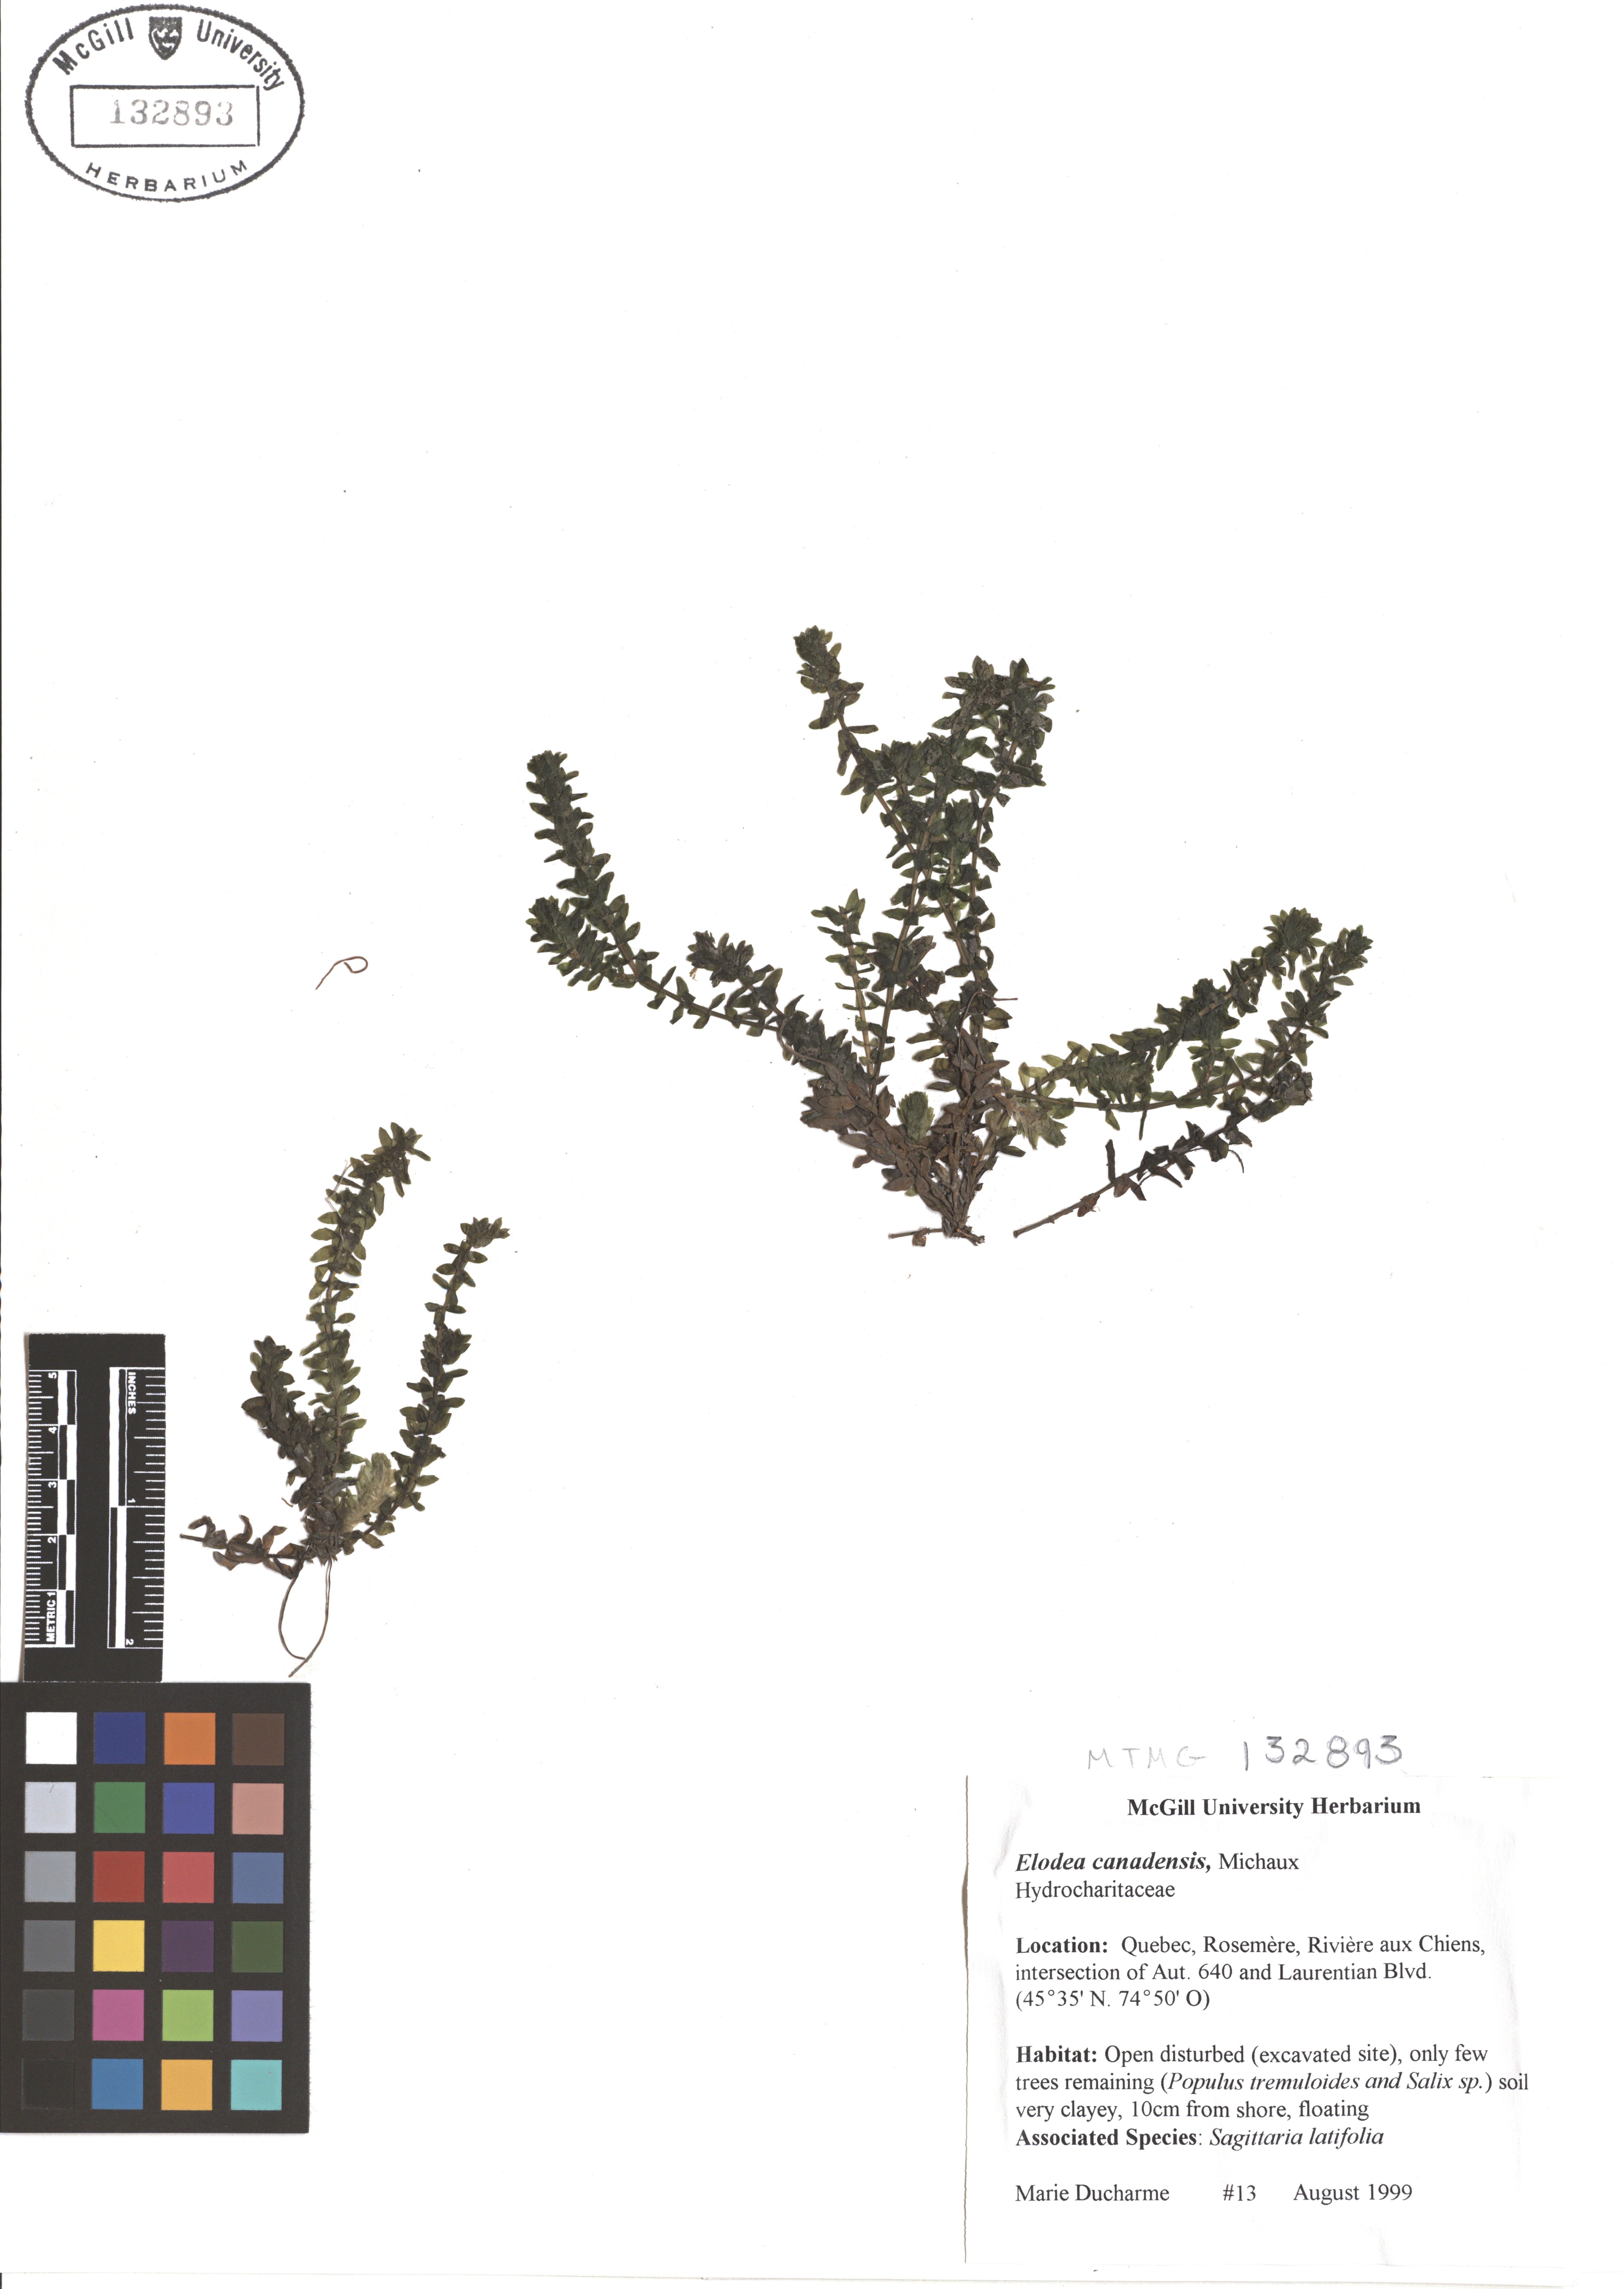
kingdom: Plantae
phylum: Tracheophyta
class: Liliopsida
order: Alismatales
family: Hydrocharitaceae
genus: Elodea
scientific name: Elodea canadensis
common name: Canadian waterweed
